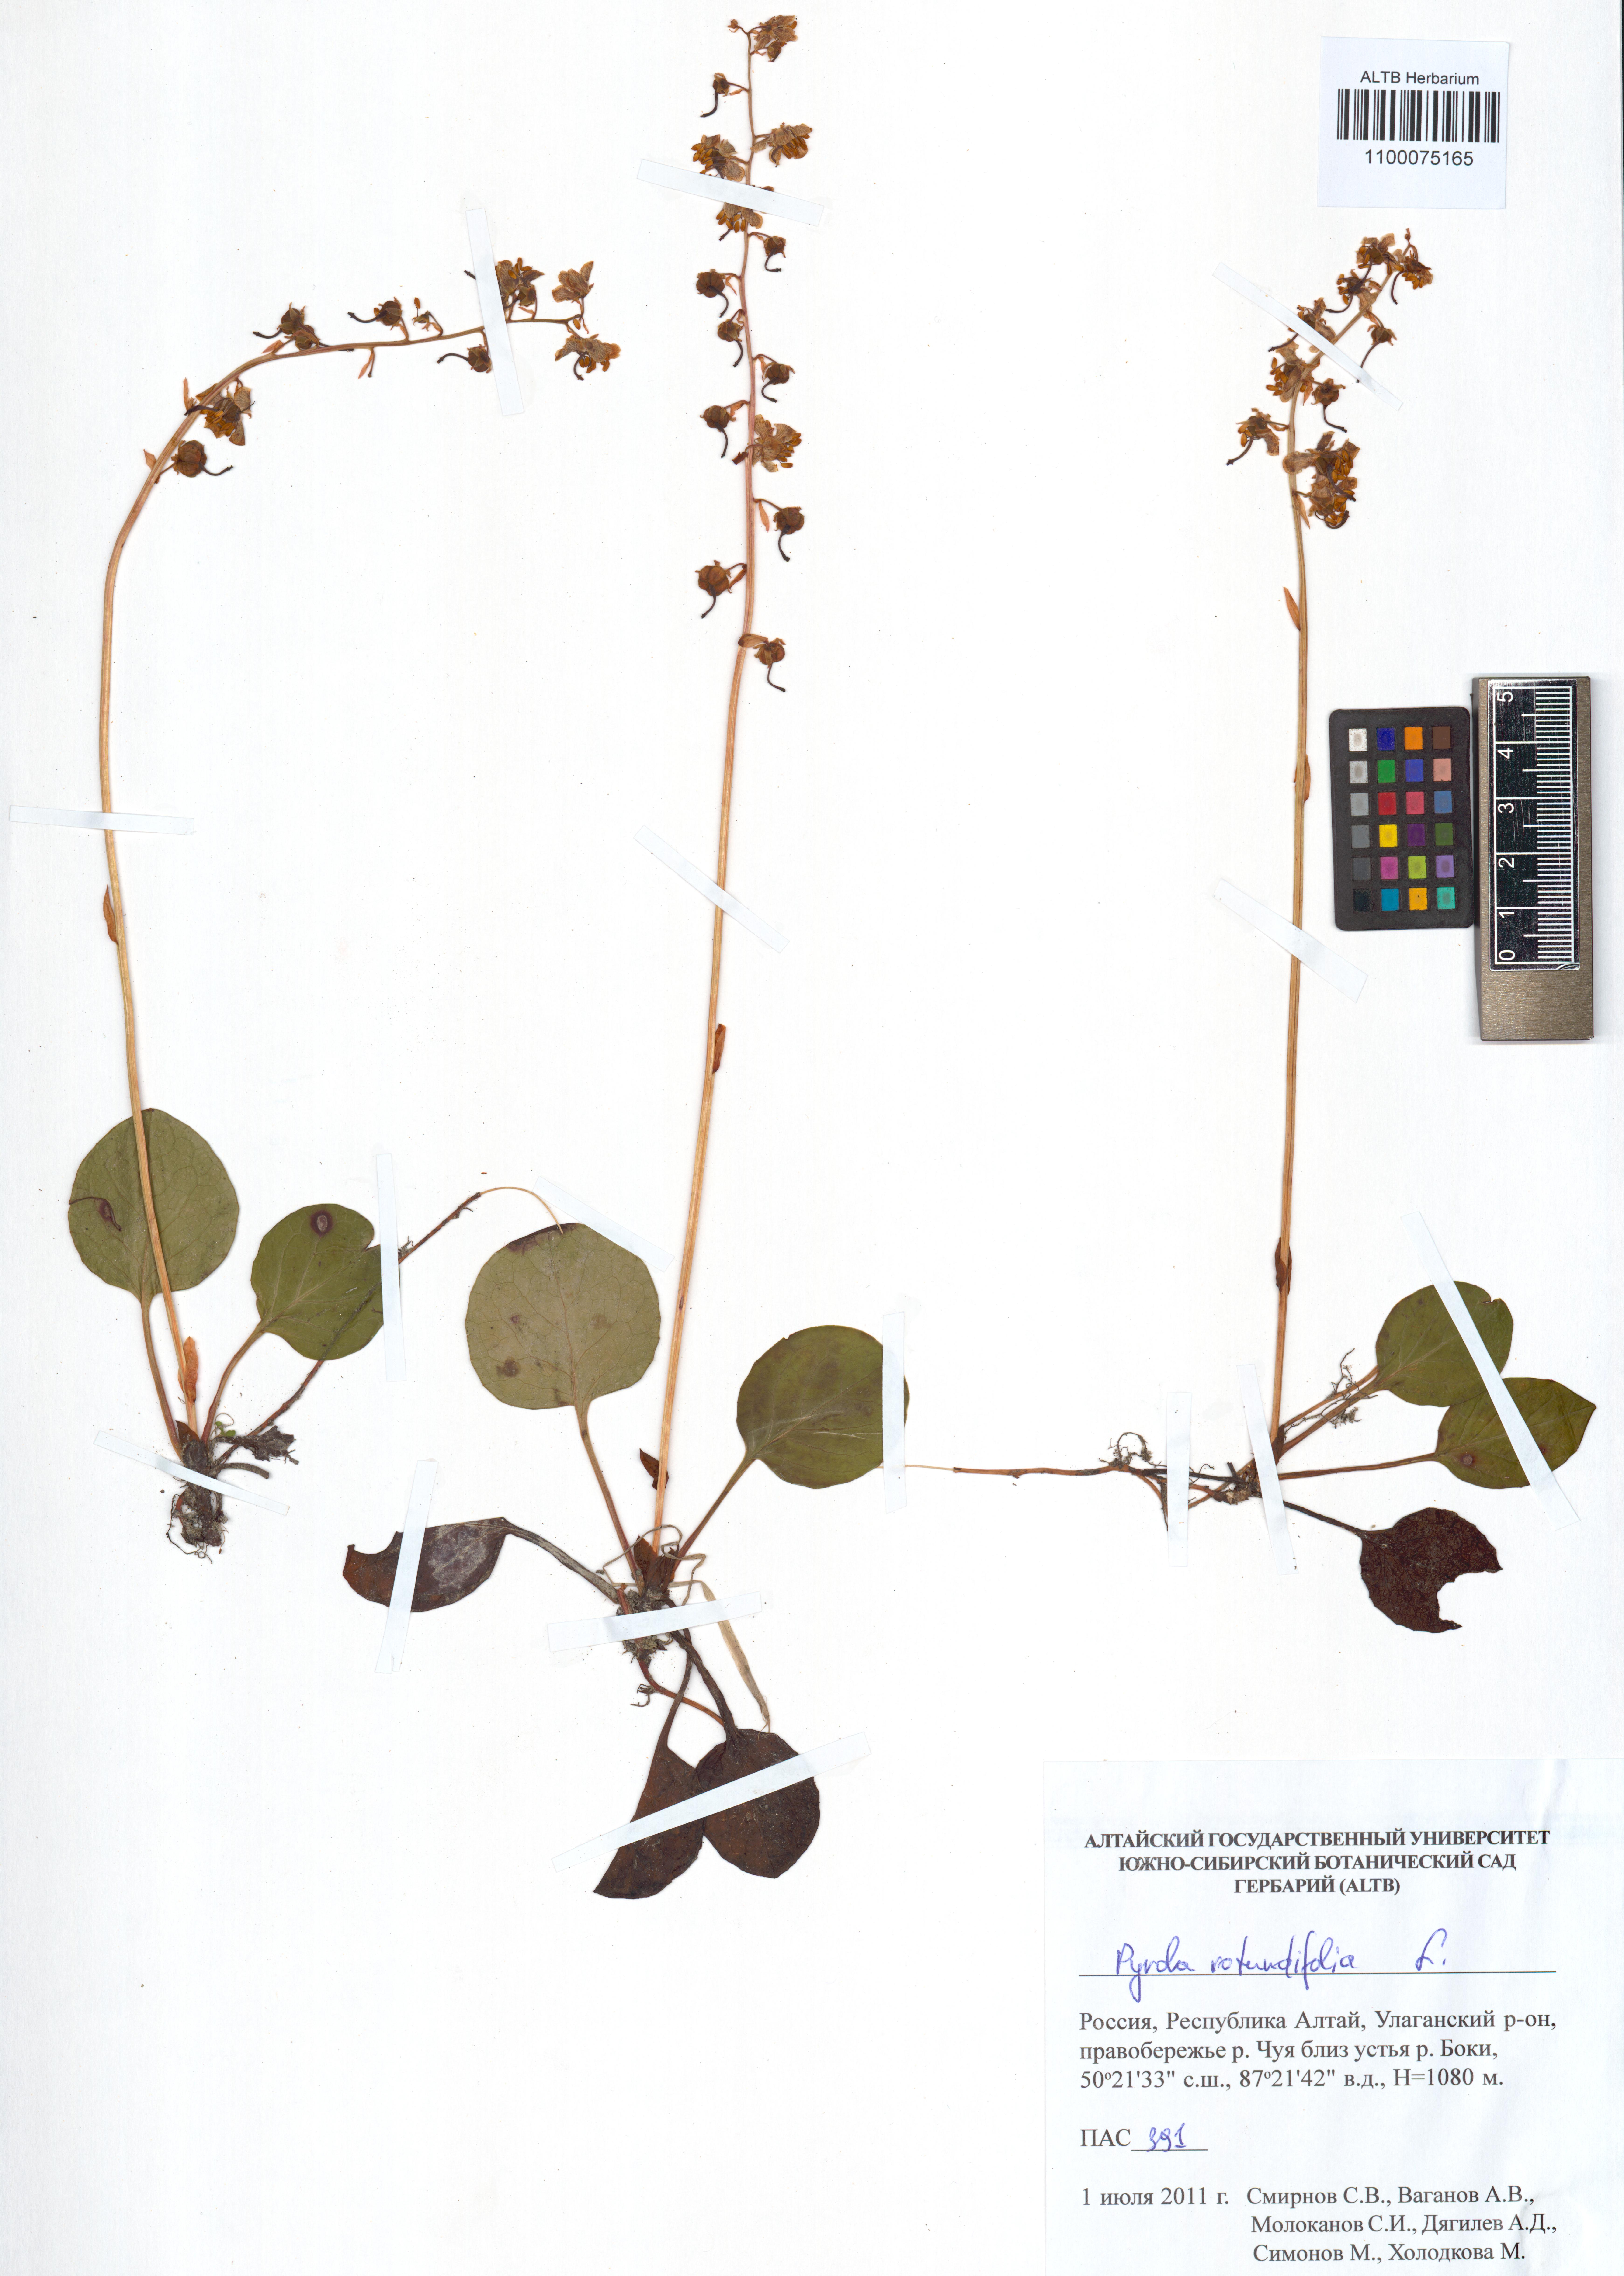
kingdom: Plantae
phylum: Tracheophyta
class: Magnoliopsida
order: Ericales
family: Ericaceae
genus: Pyrola
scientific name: Pyrola rotundifolia
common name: Round-leaved wintergreen
